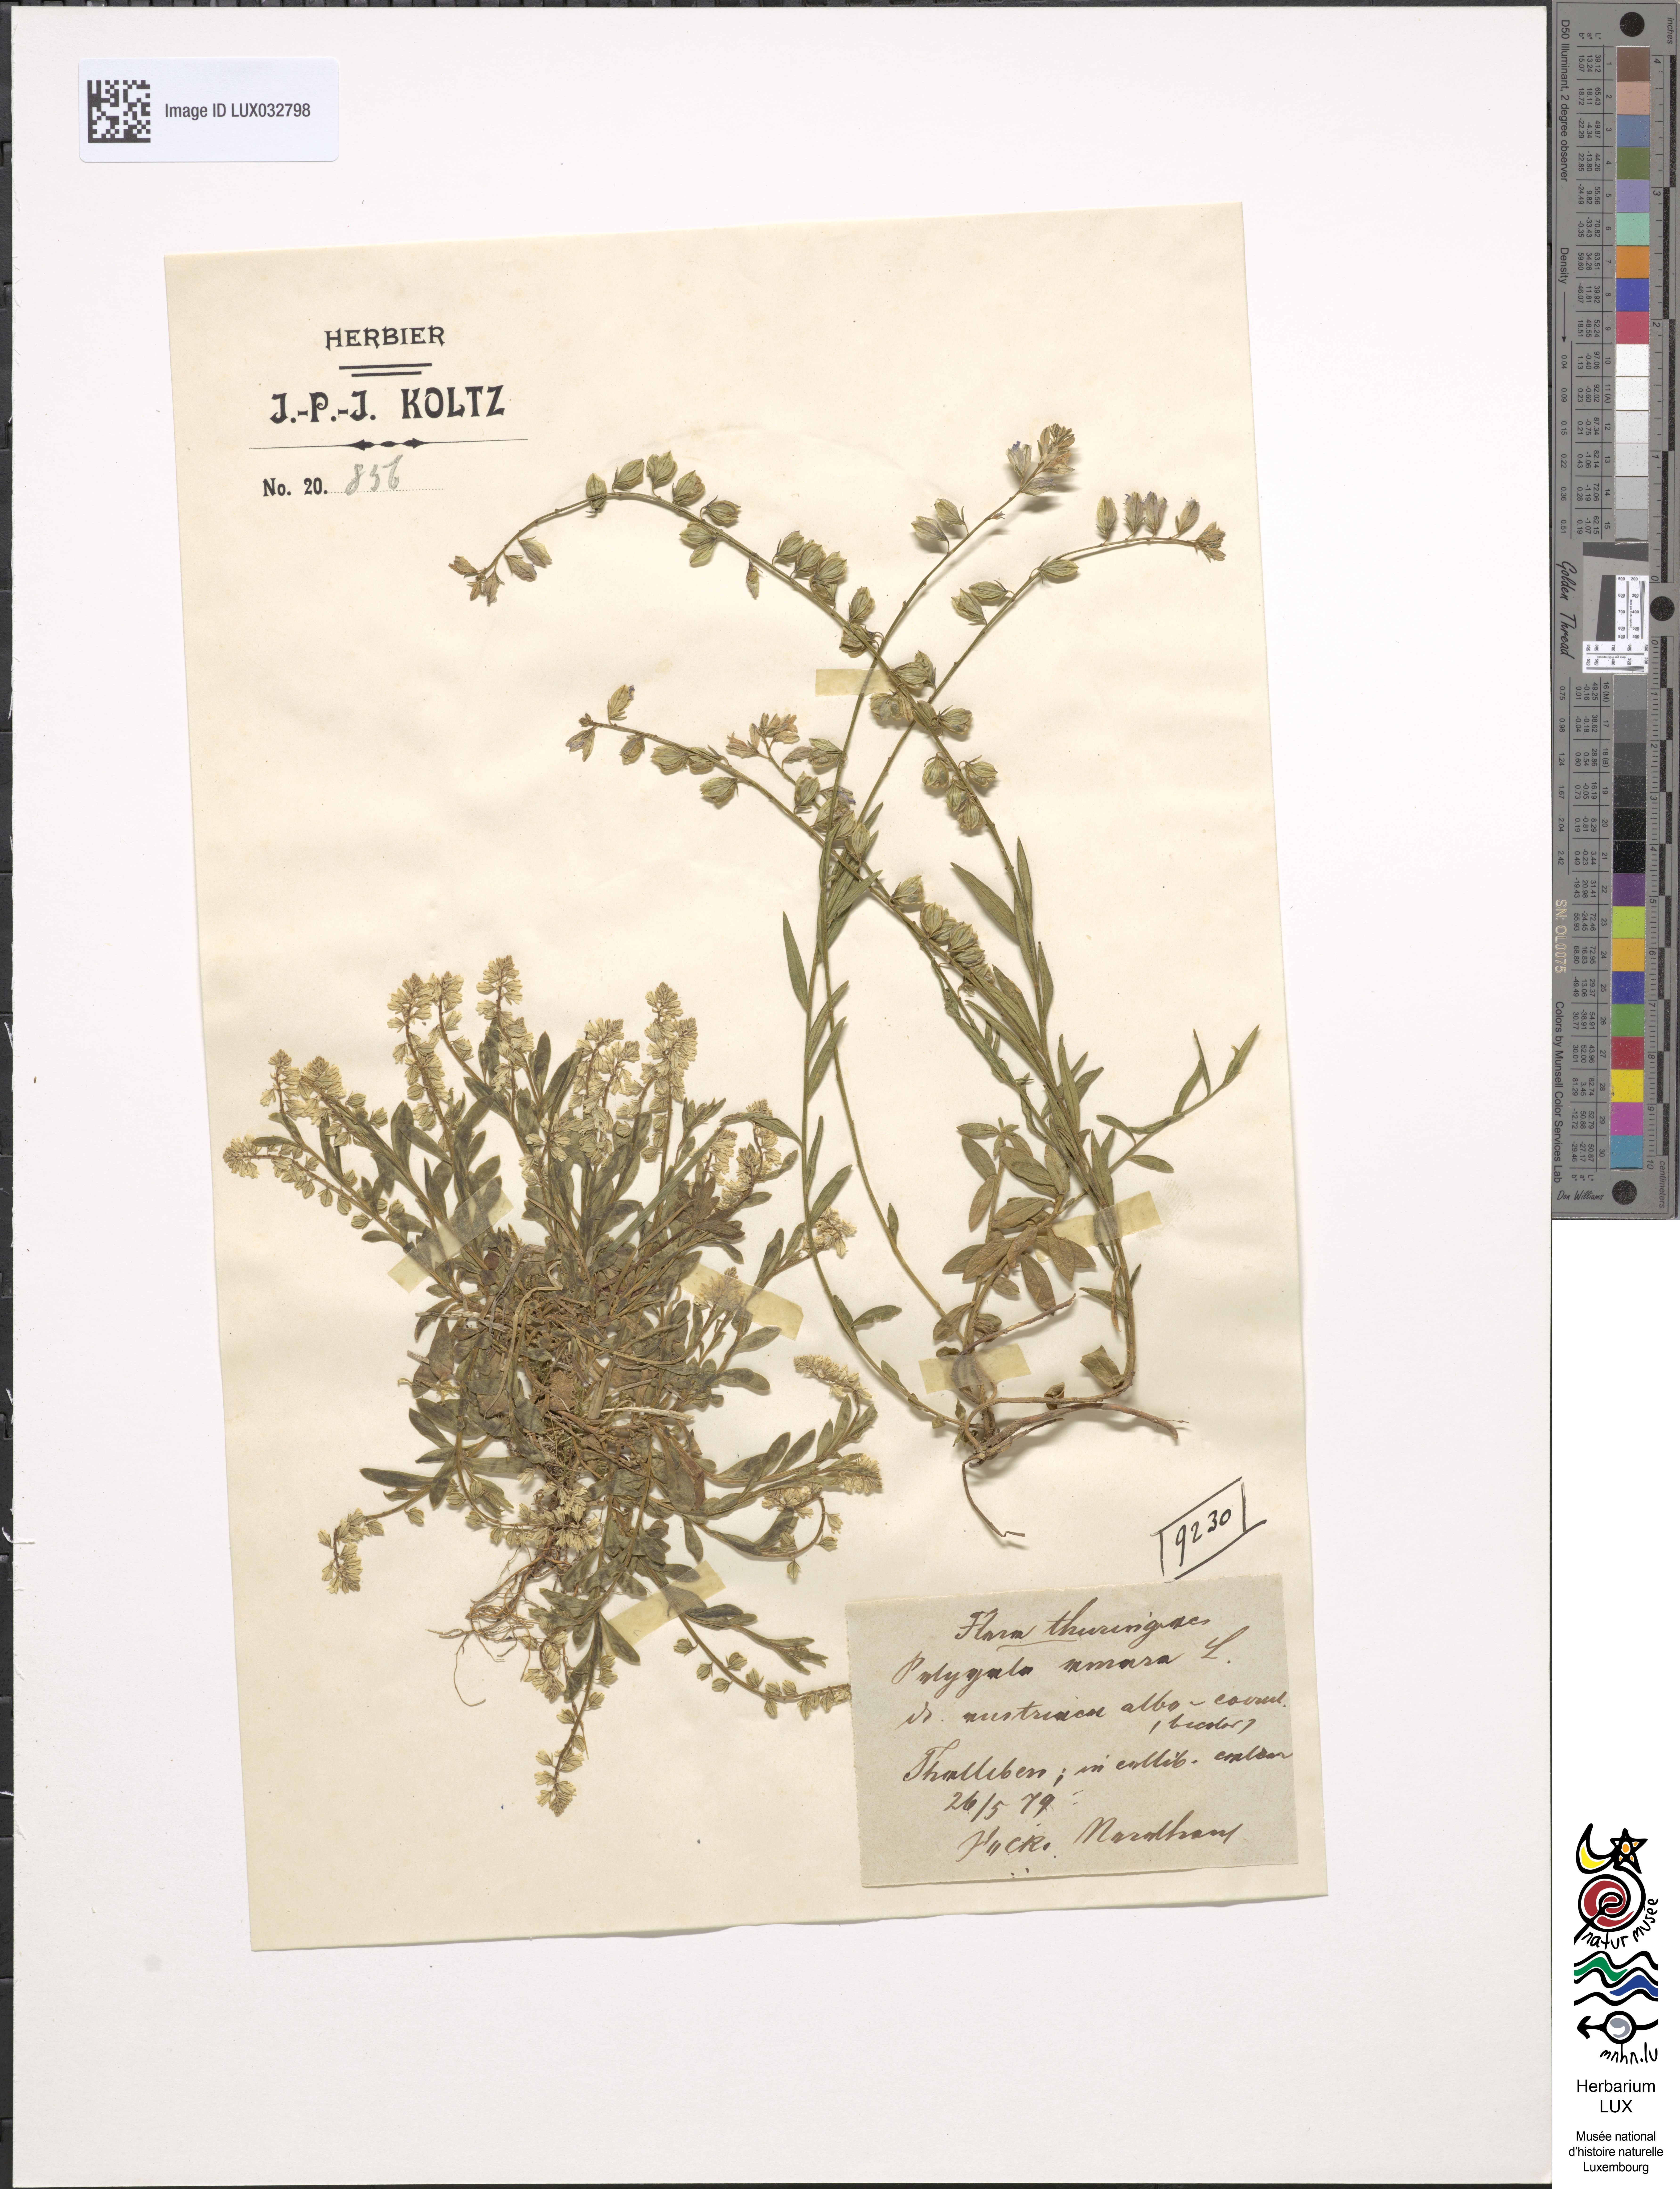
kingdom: Plantae
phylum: Tracheophyta
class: Magnoliopsida
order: Fabales
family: Polygalaceae
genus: Polygala
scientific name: Polygala amarella
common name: Dwarf milkwort
